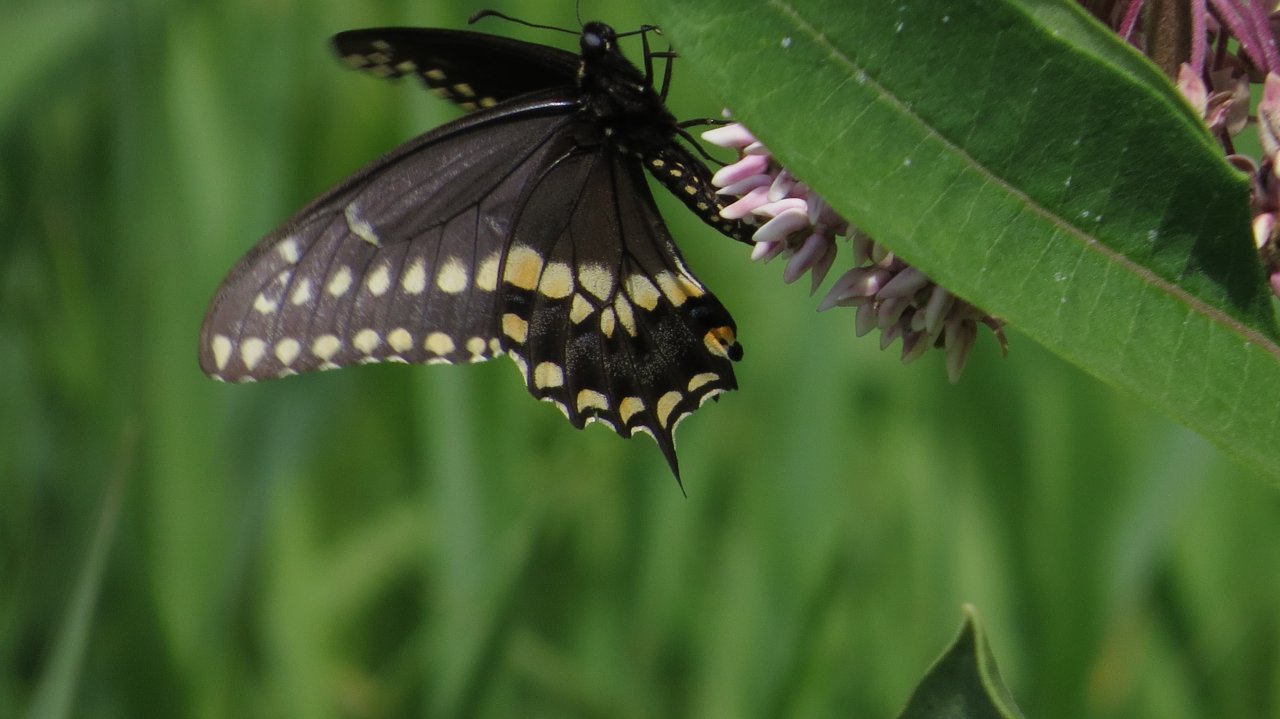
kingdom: Animalia
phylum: Arthropoda
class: Insecta
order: Lepidoptera
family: Papilionidae
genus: Papilio
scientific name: Papilio polyxenes
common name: Black Swallowtail
